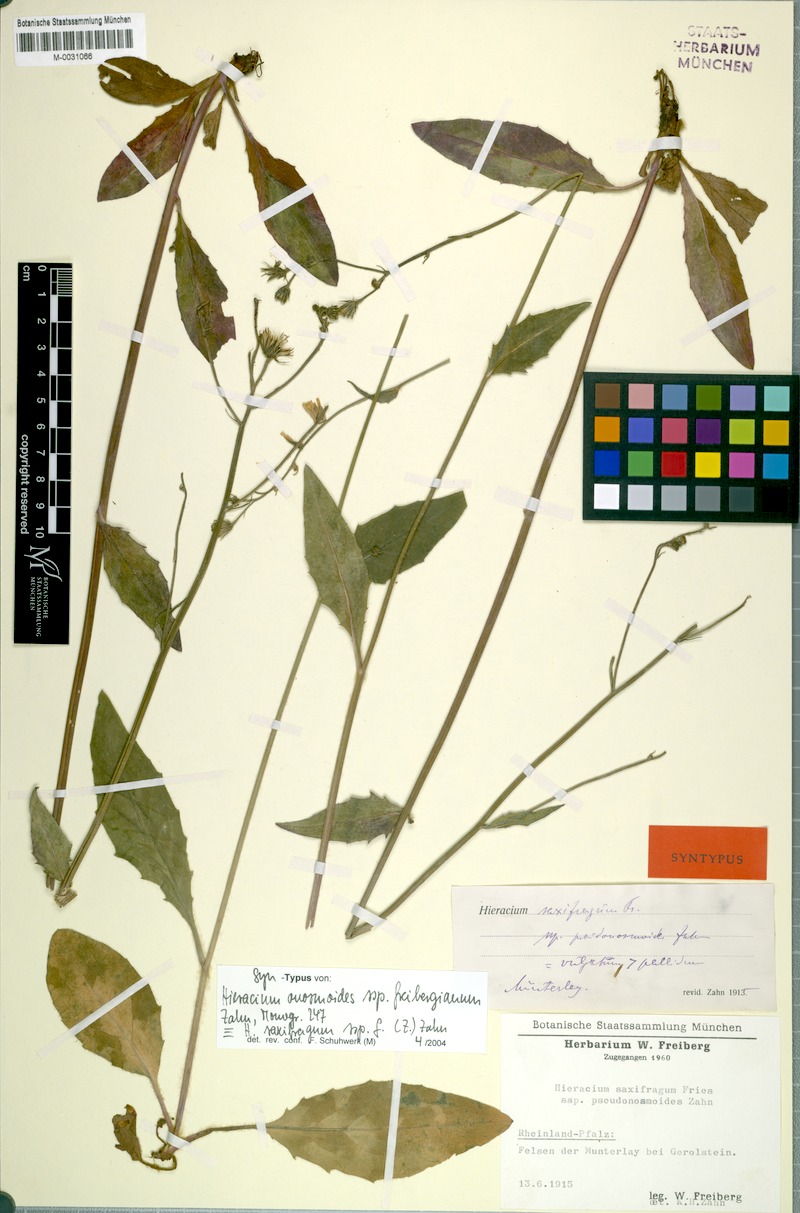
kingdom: Plantae
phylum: Tracheophyta
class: Magnoliopsida
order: Asterales
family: Asteraceae
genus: Hieracium
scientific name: Hieracium saxifragum
